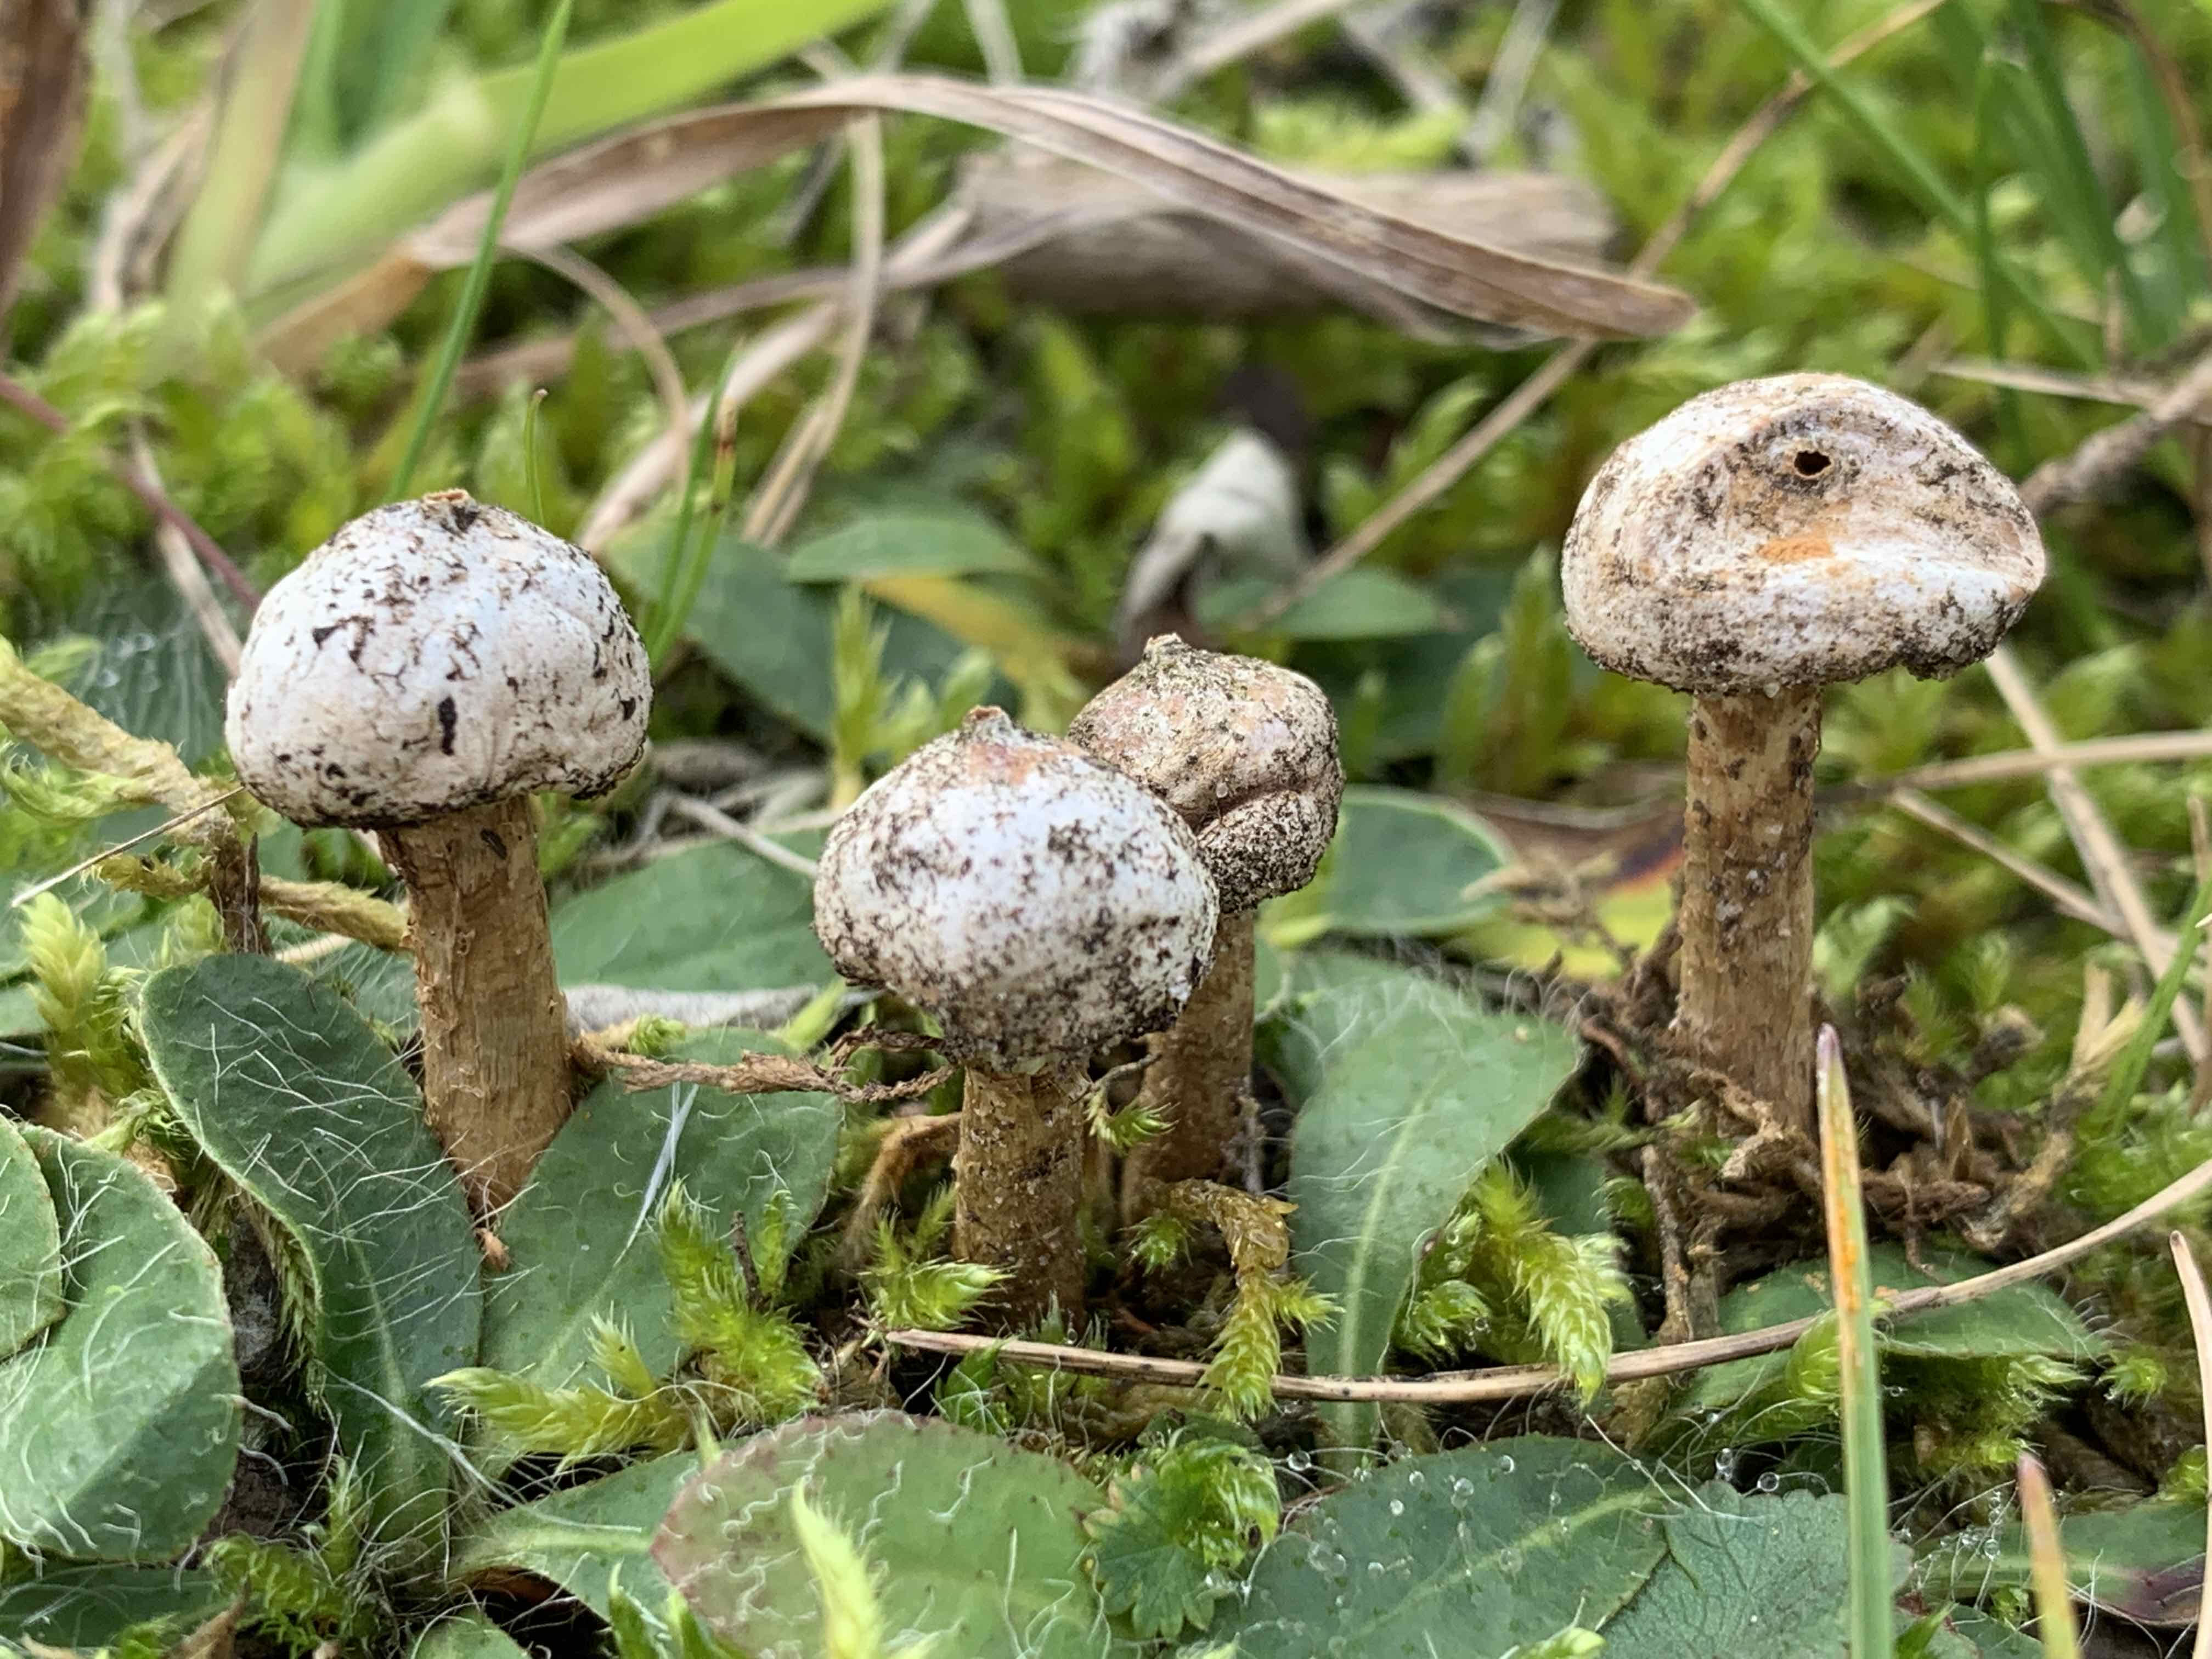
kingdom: Fungi
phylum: Basidiomycota
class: Agaricomycetes
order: Agaricales
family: Agaricaceae
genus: Tulostoma
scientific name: Tulostoma brumale
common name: vinter-stilkbovist
